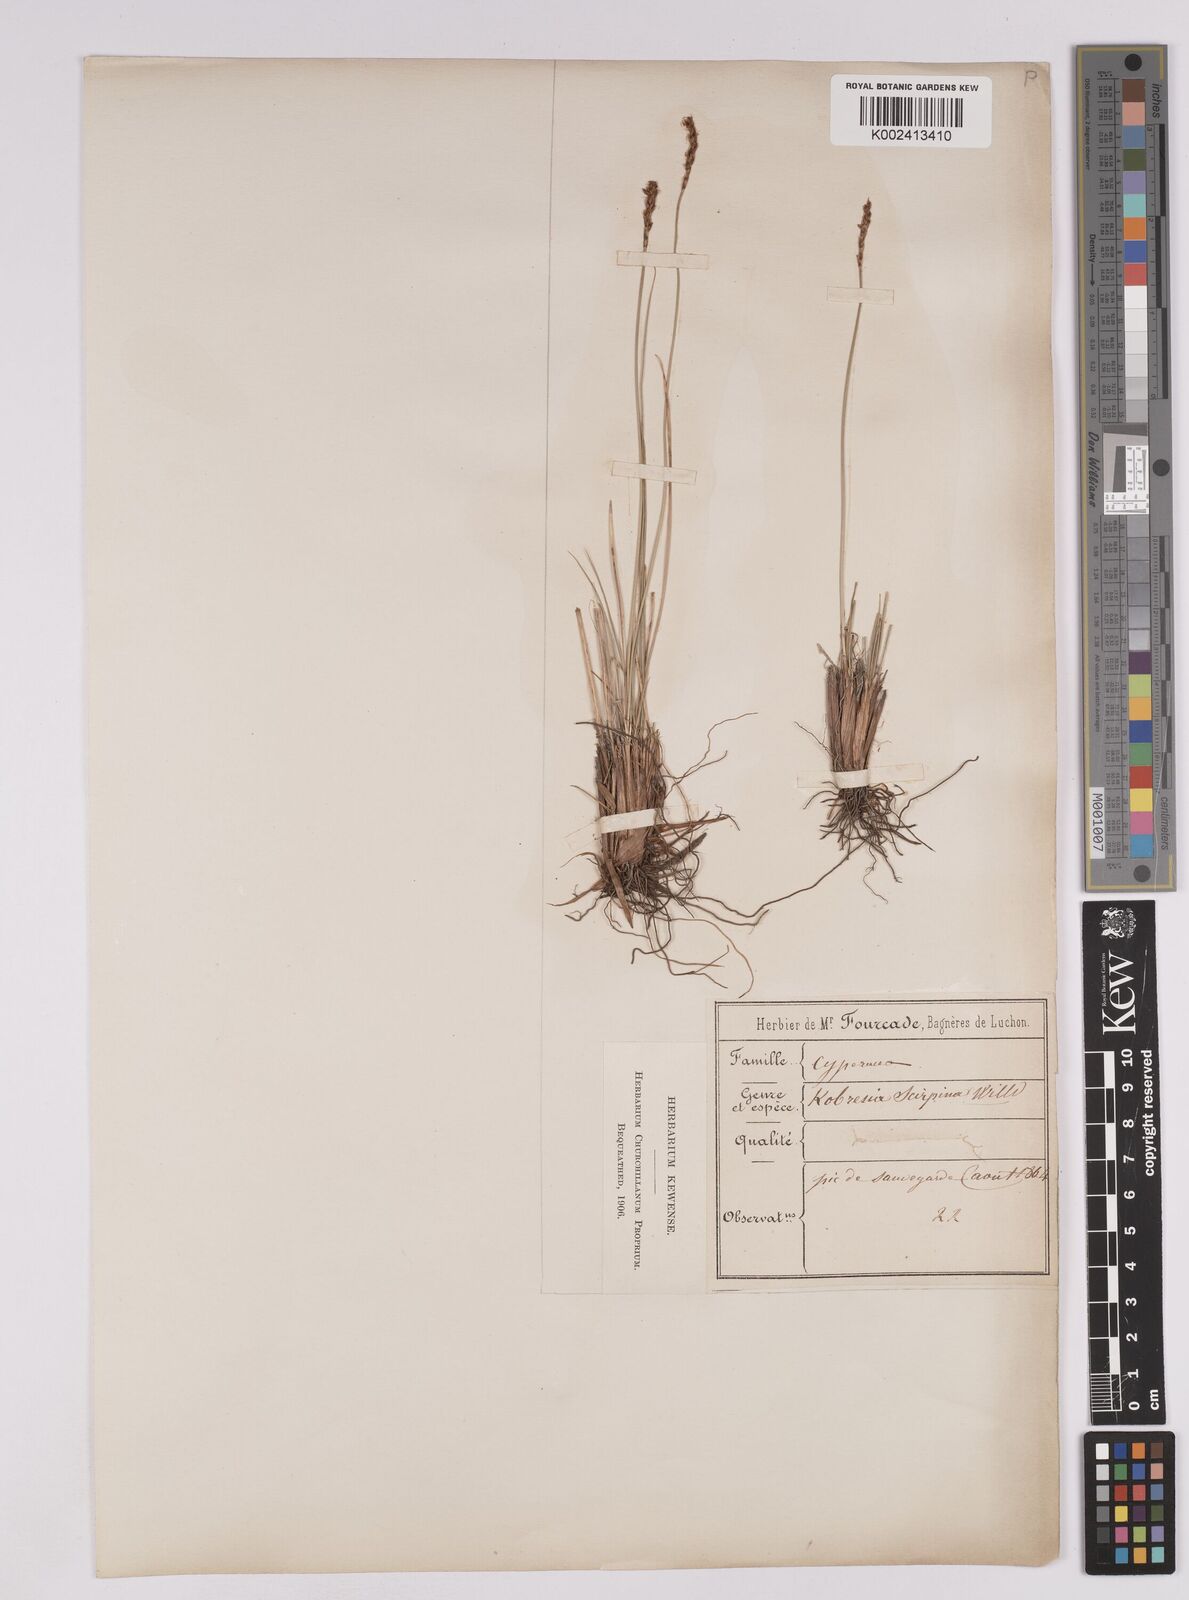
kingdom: Plantae
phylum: Tracheophyta
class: Liliopsida
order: Poales
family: Cyperaceae
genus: Carex
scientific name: Carex myosuroides
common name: Bellard's bog sedge
